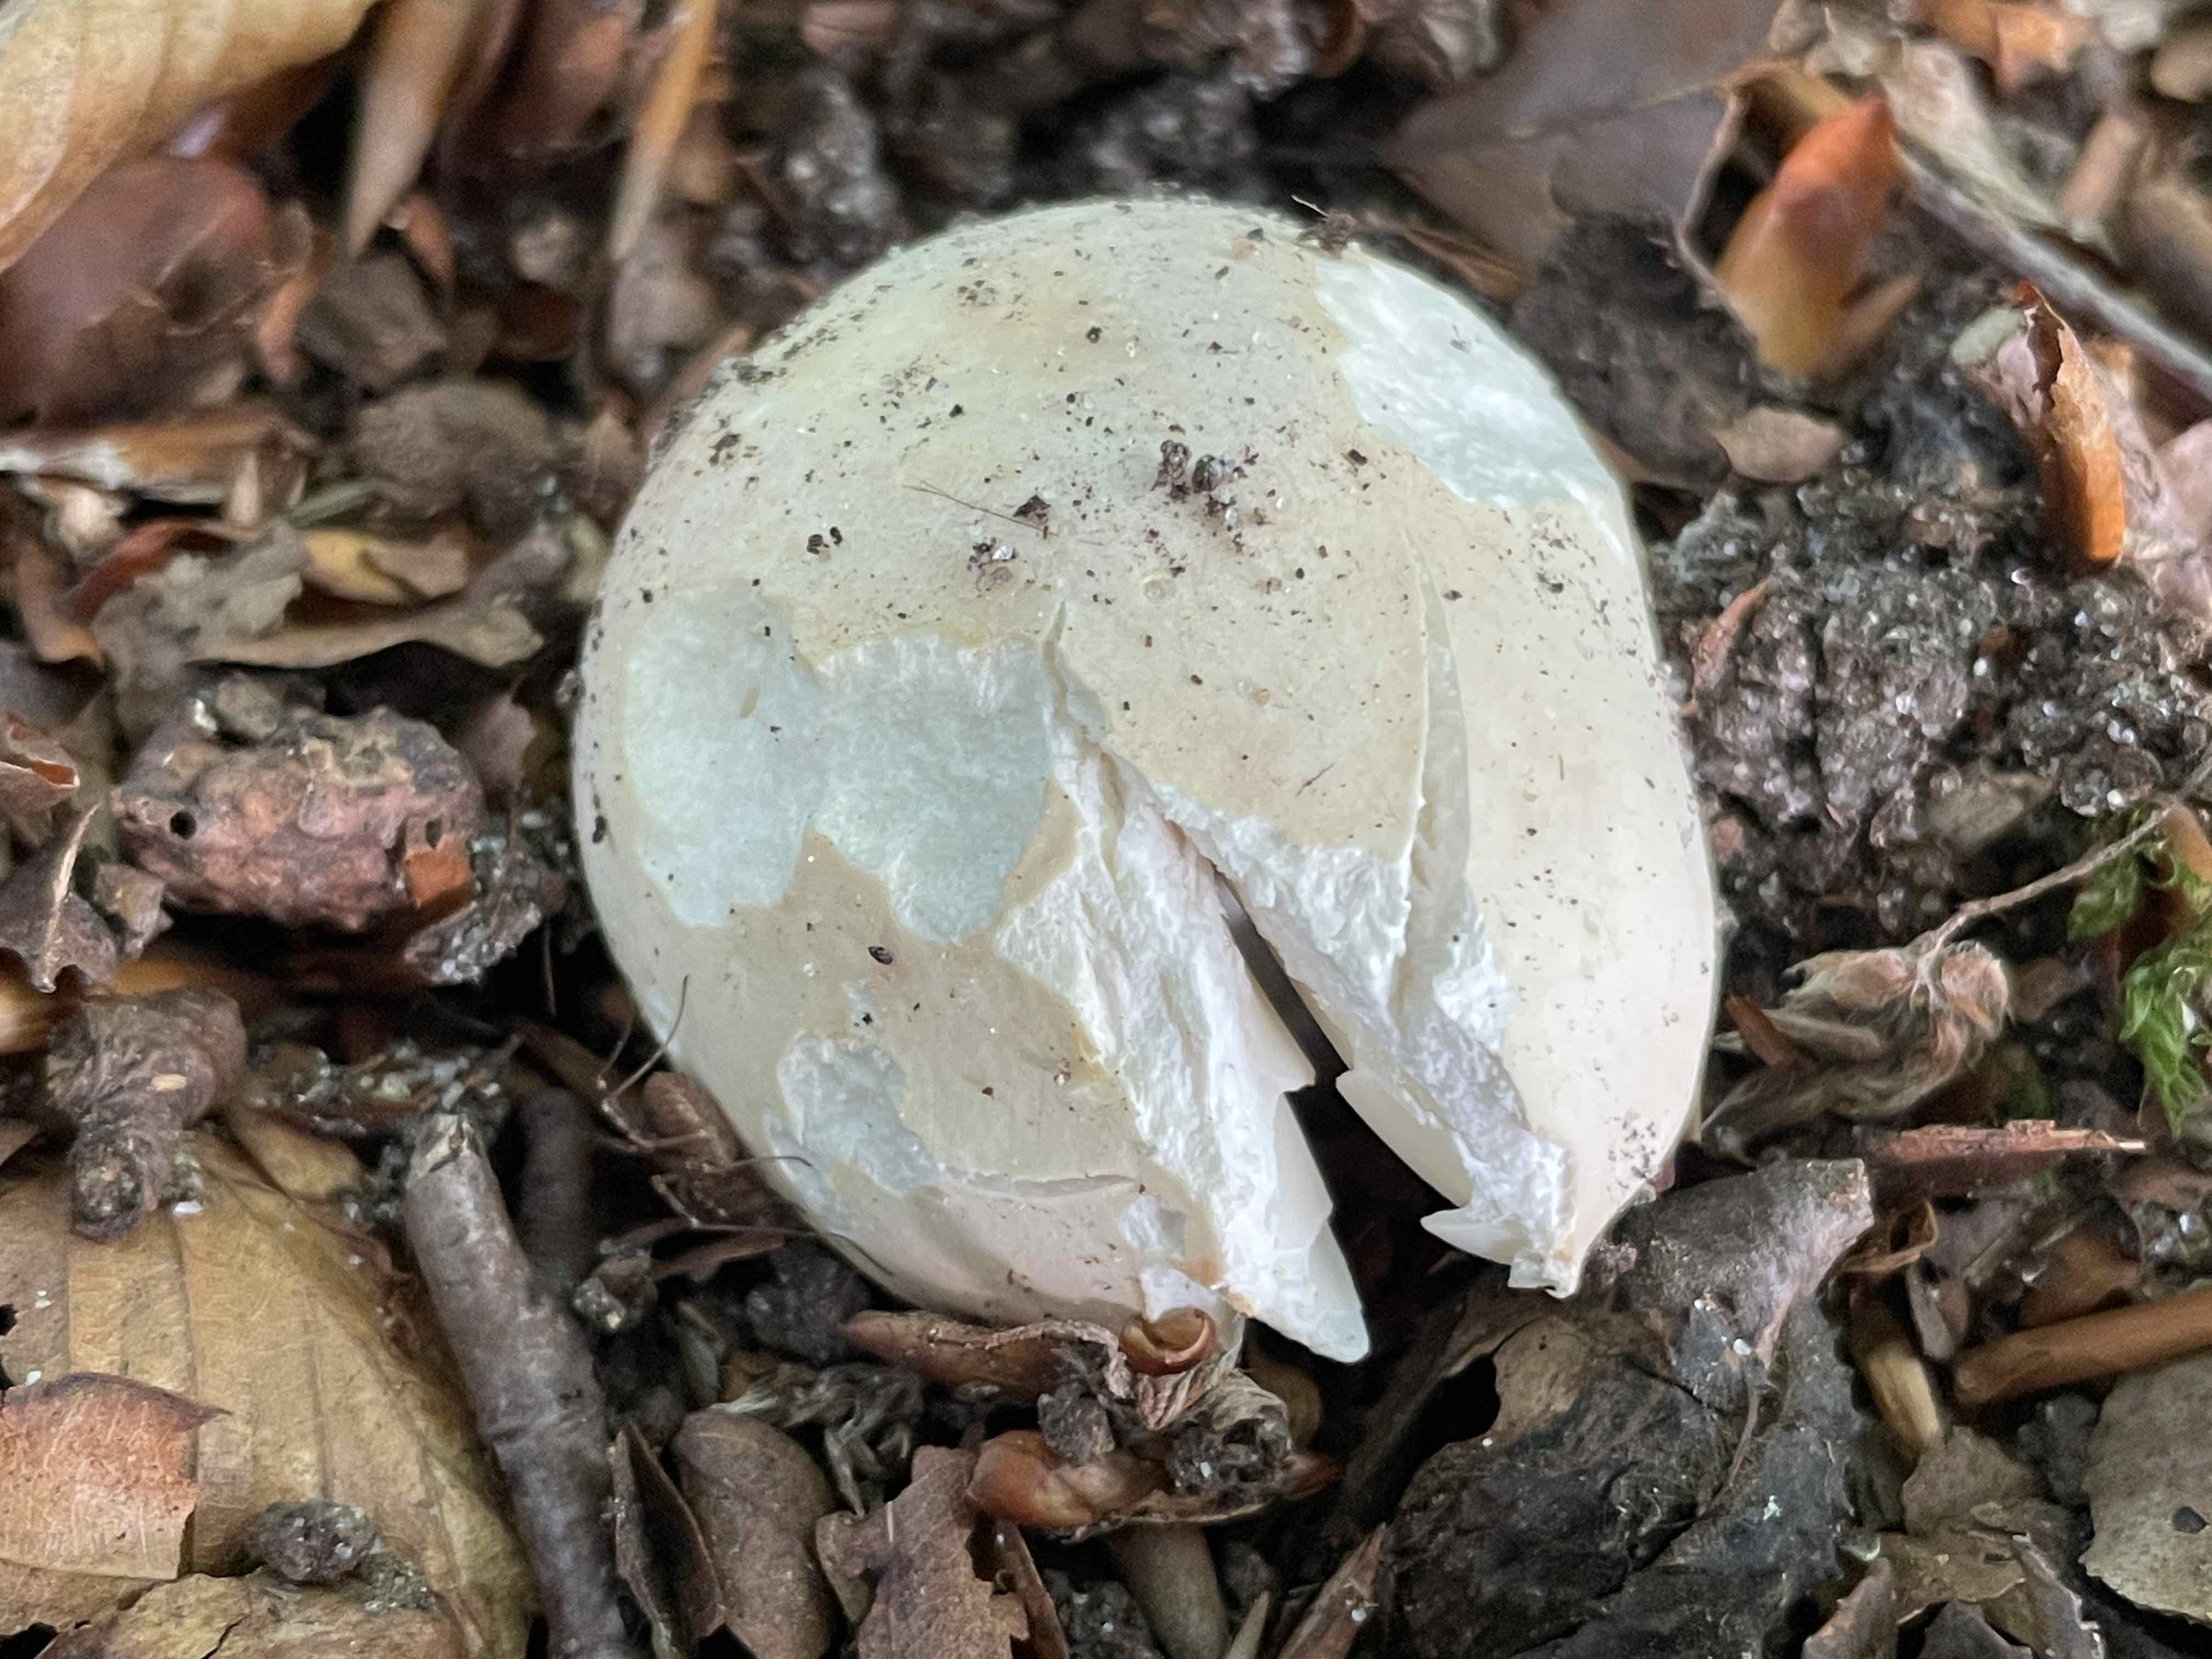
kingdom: Fungi
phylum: Basidiomycota
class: Agaricomycetes
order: Russulales
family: Russulaceae
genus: Russula
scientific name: Russula vesca
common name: spiselig skørhat
